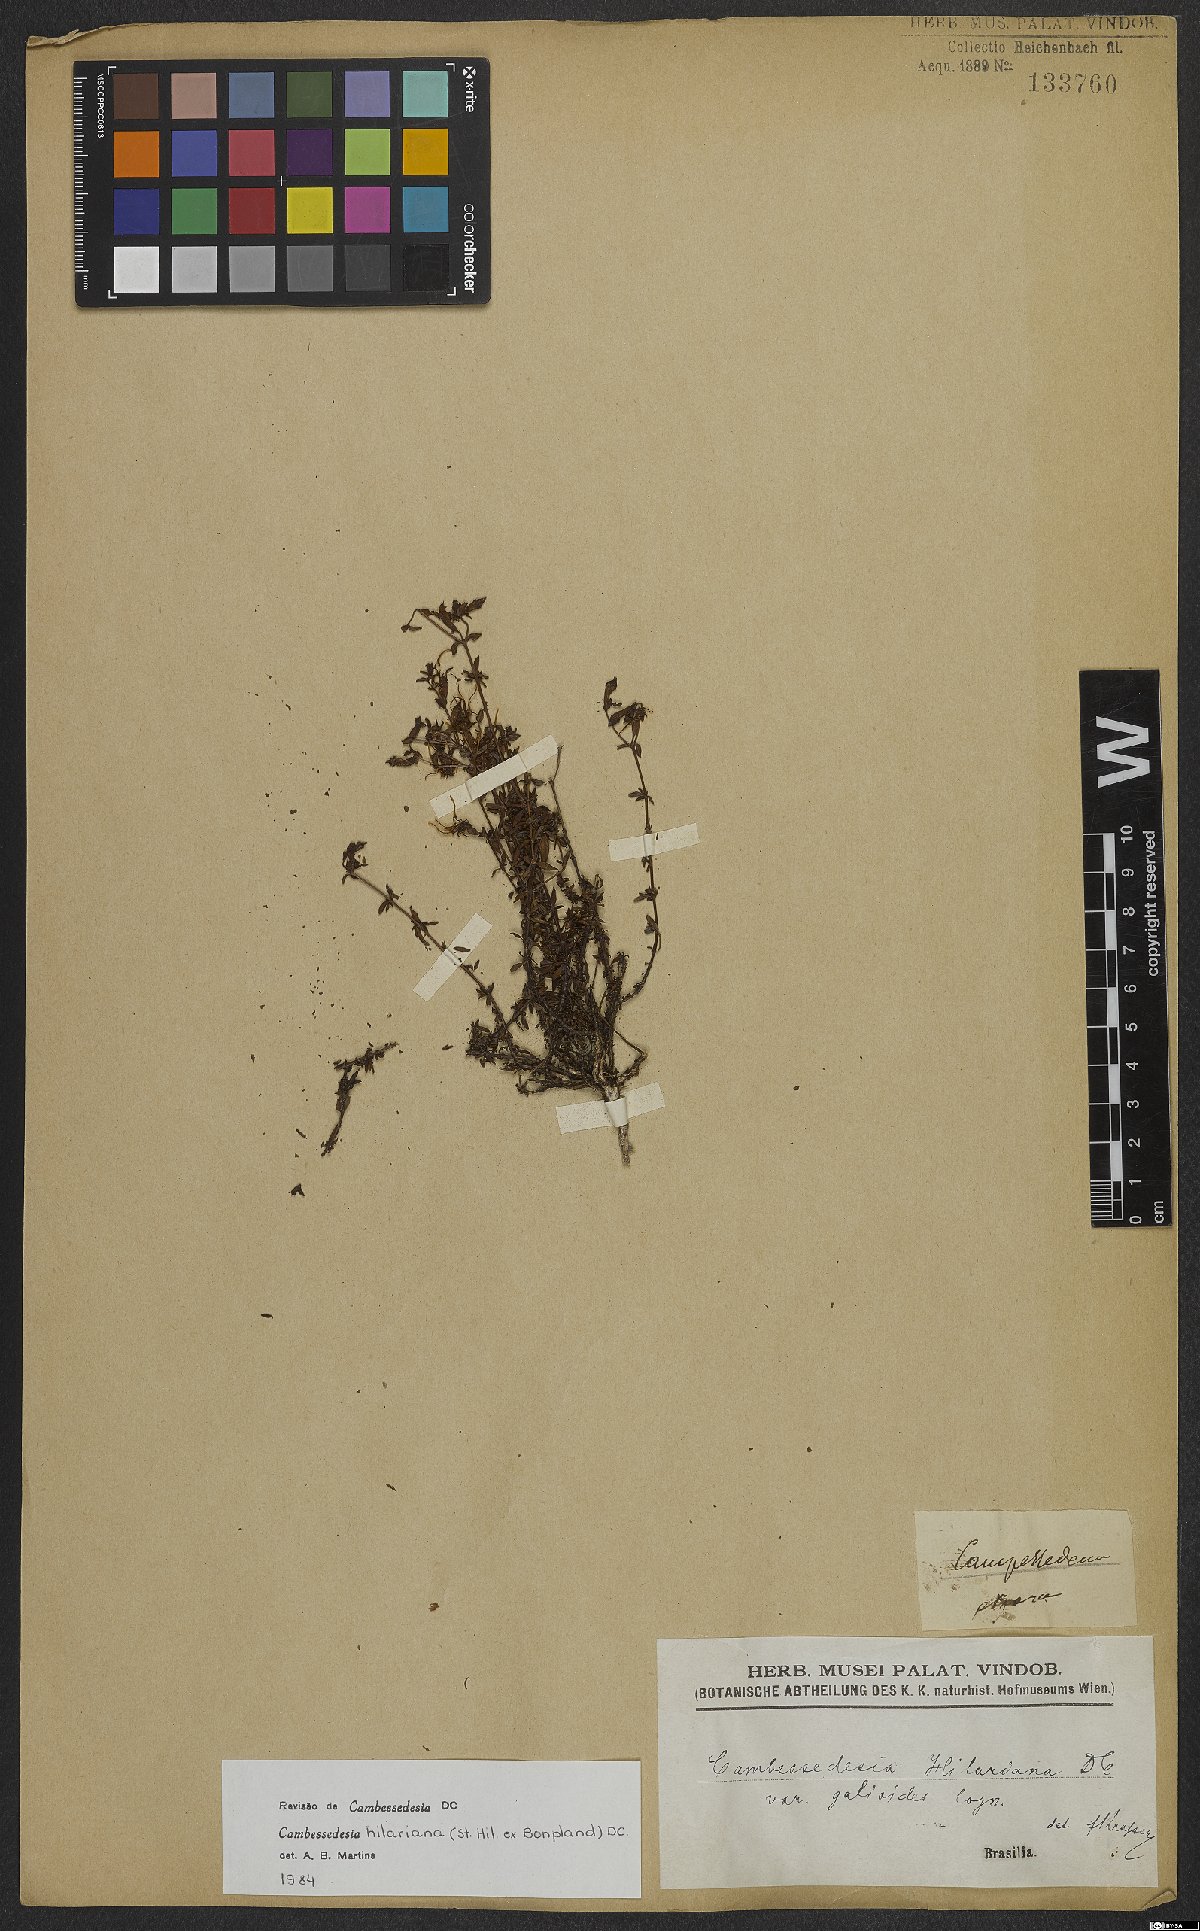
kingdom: Plantae
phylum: Tracheophyta
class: Magnoliopsida
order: Myrtales
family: Melastomataceae
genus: Cambessedesia
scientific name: Cambessedesia hilariana
